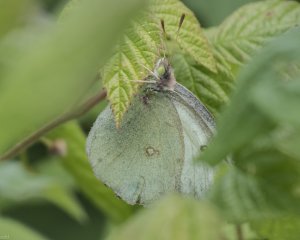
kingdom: Animalia
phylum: Arthropoda
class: Insecta
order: Lepidoptera
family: Pieridae
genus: Colias
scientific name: Colias philodice
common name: Clouded Sulphur
